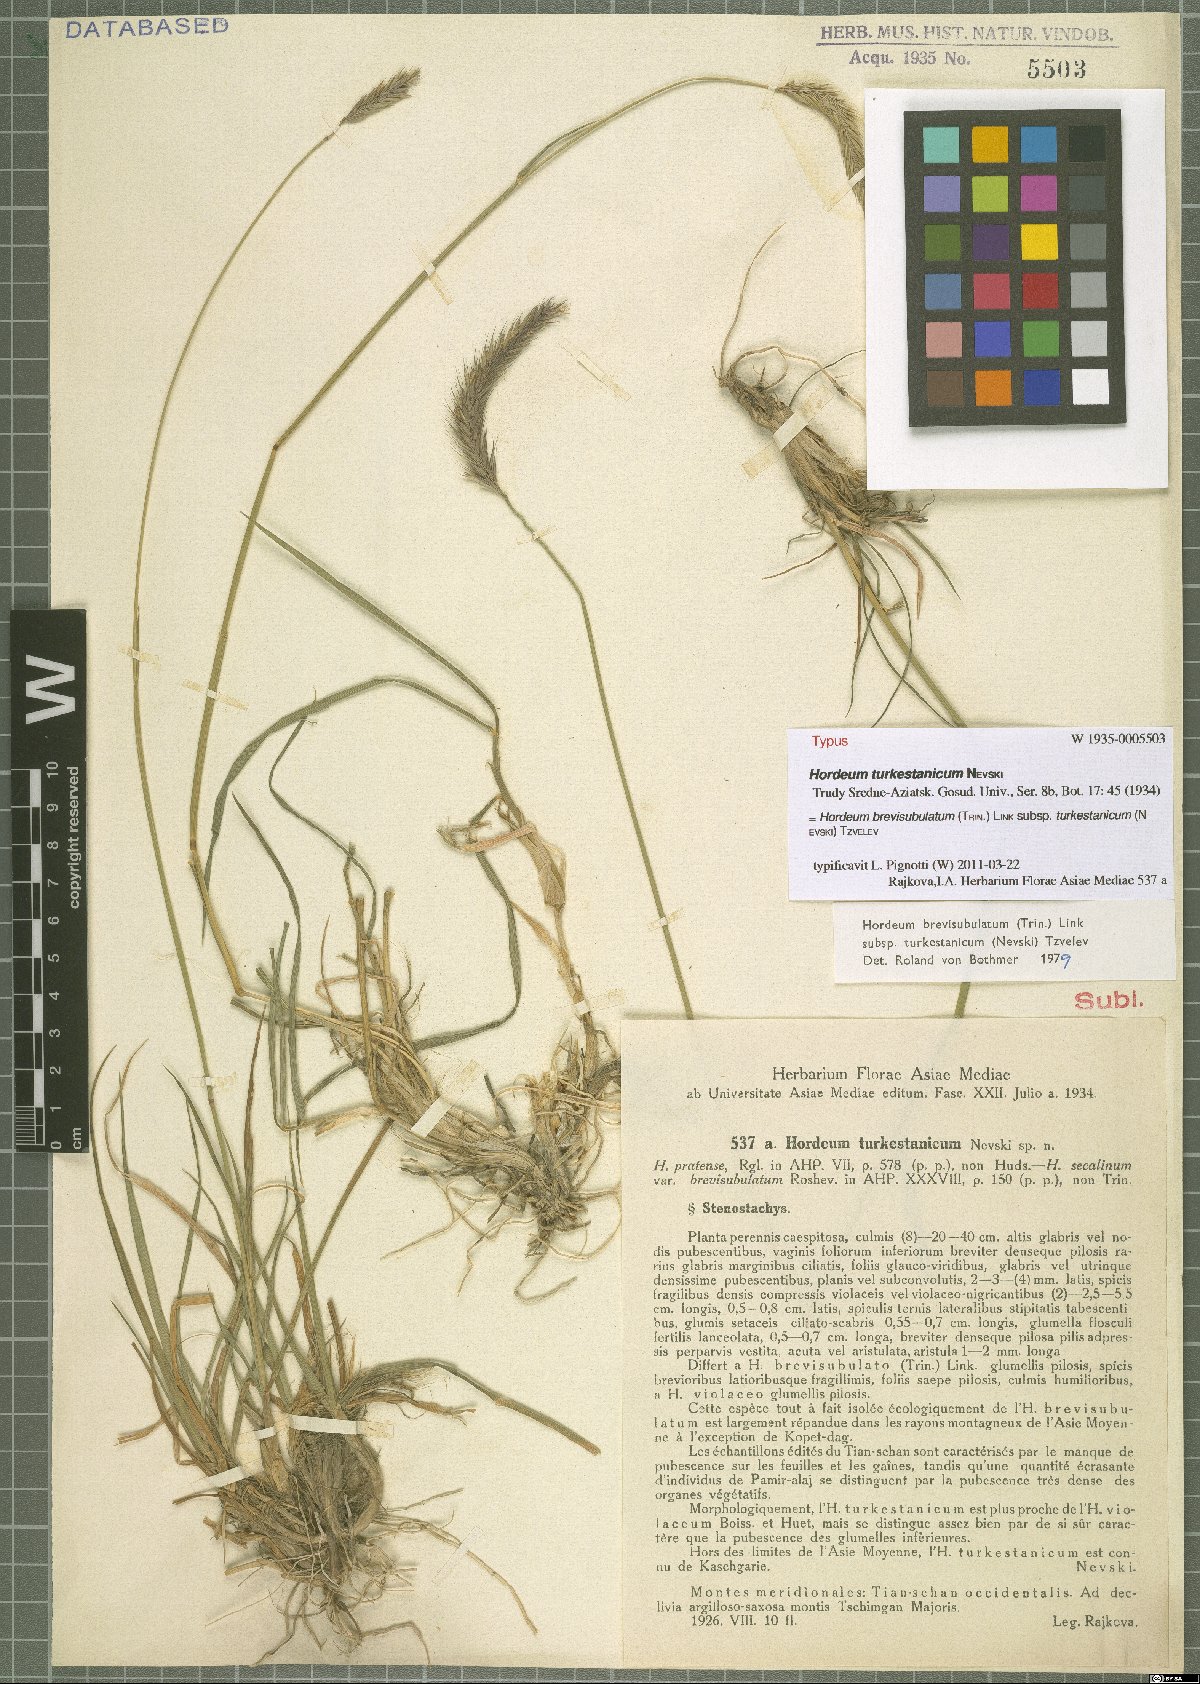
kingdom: Plantae
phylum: Tracheophyta
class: Liliopsida
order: Poales
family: Poaceae
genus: Hordeum
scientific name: Hordeum brevisubulatum
